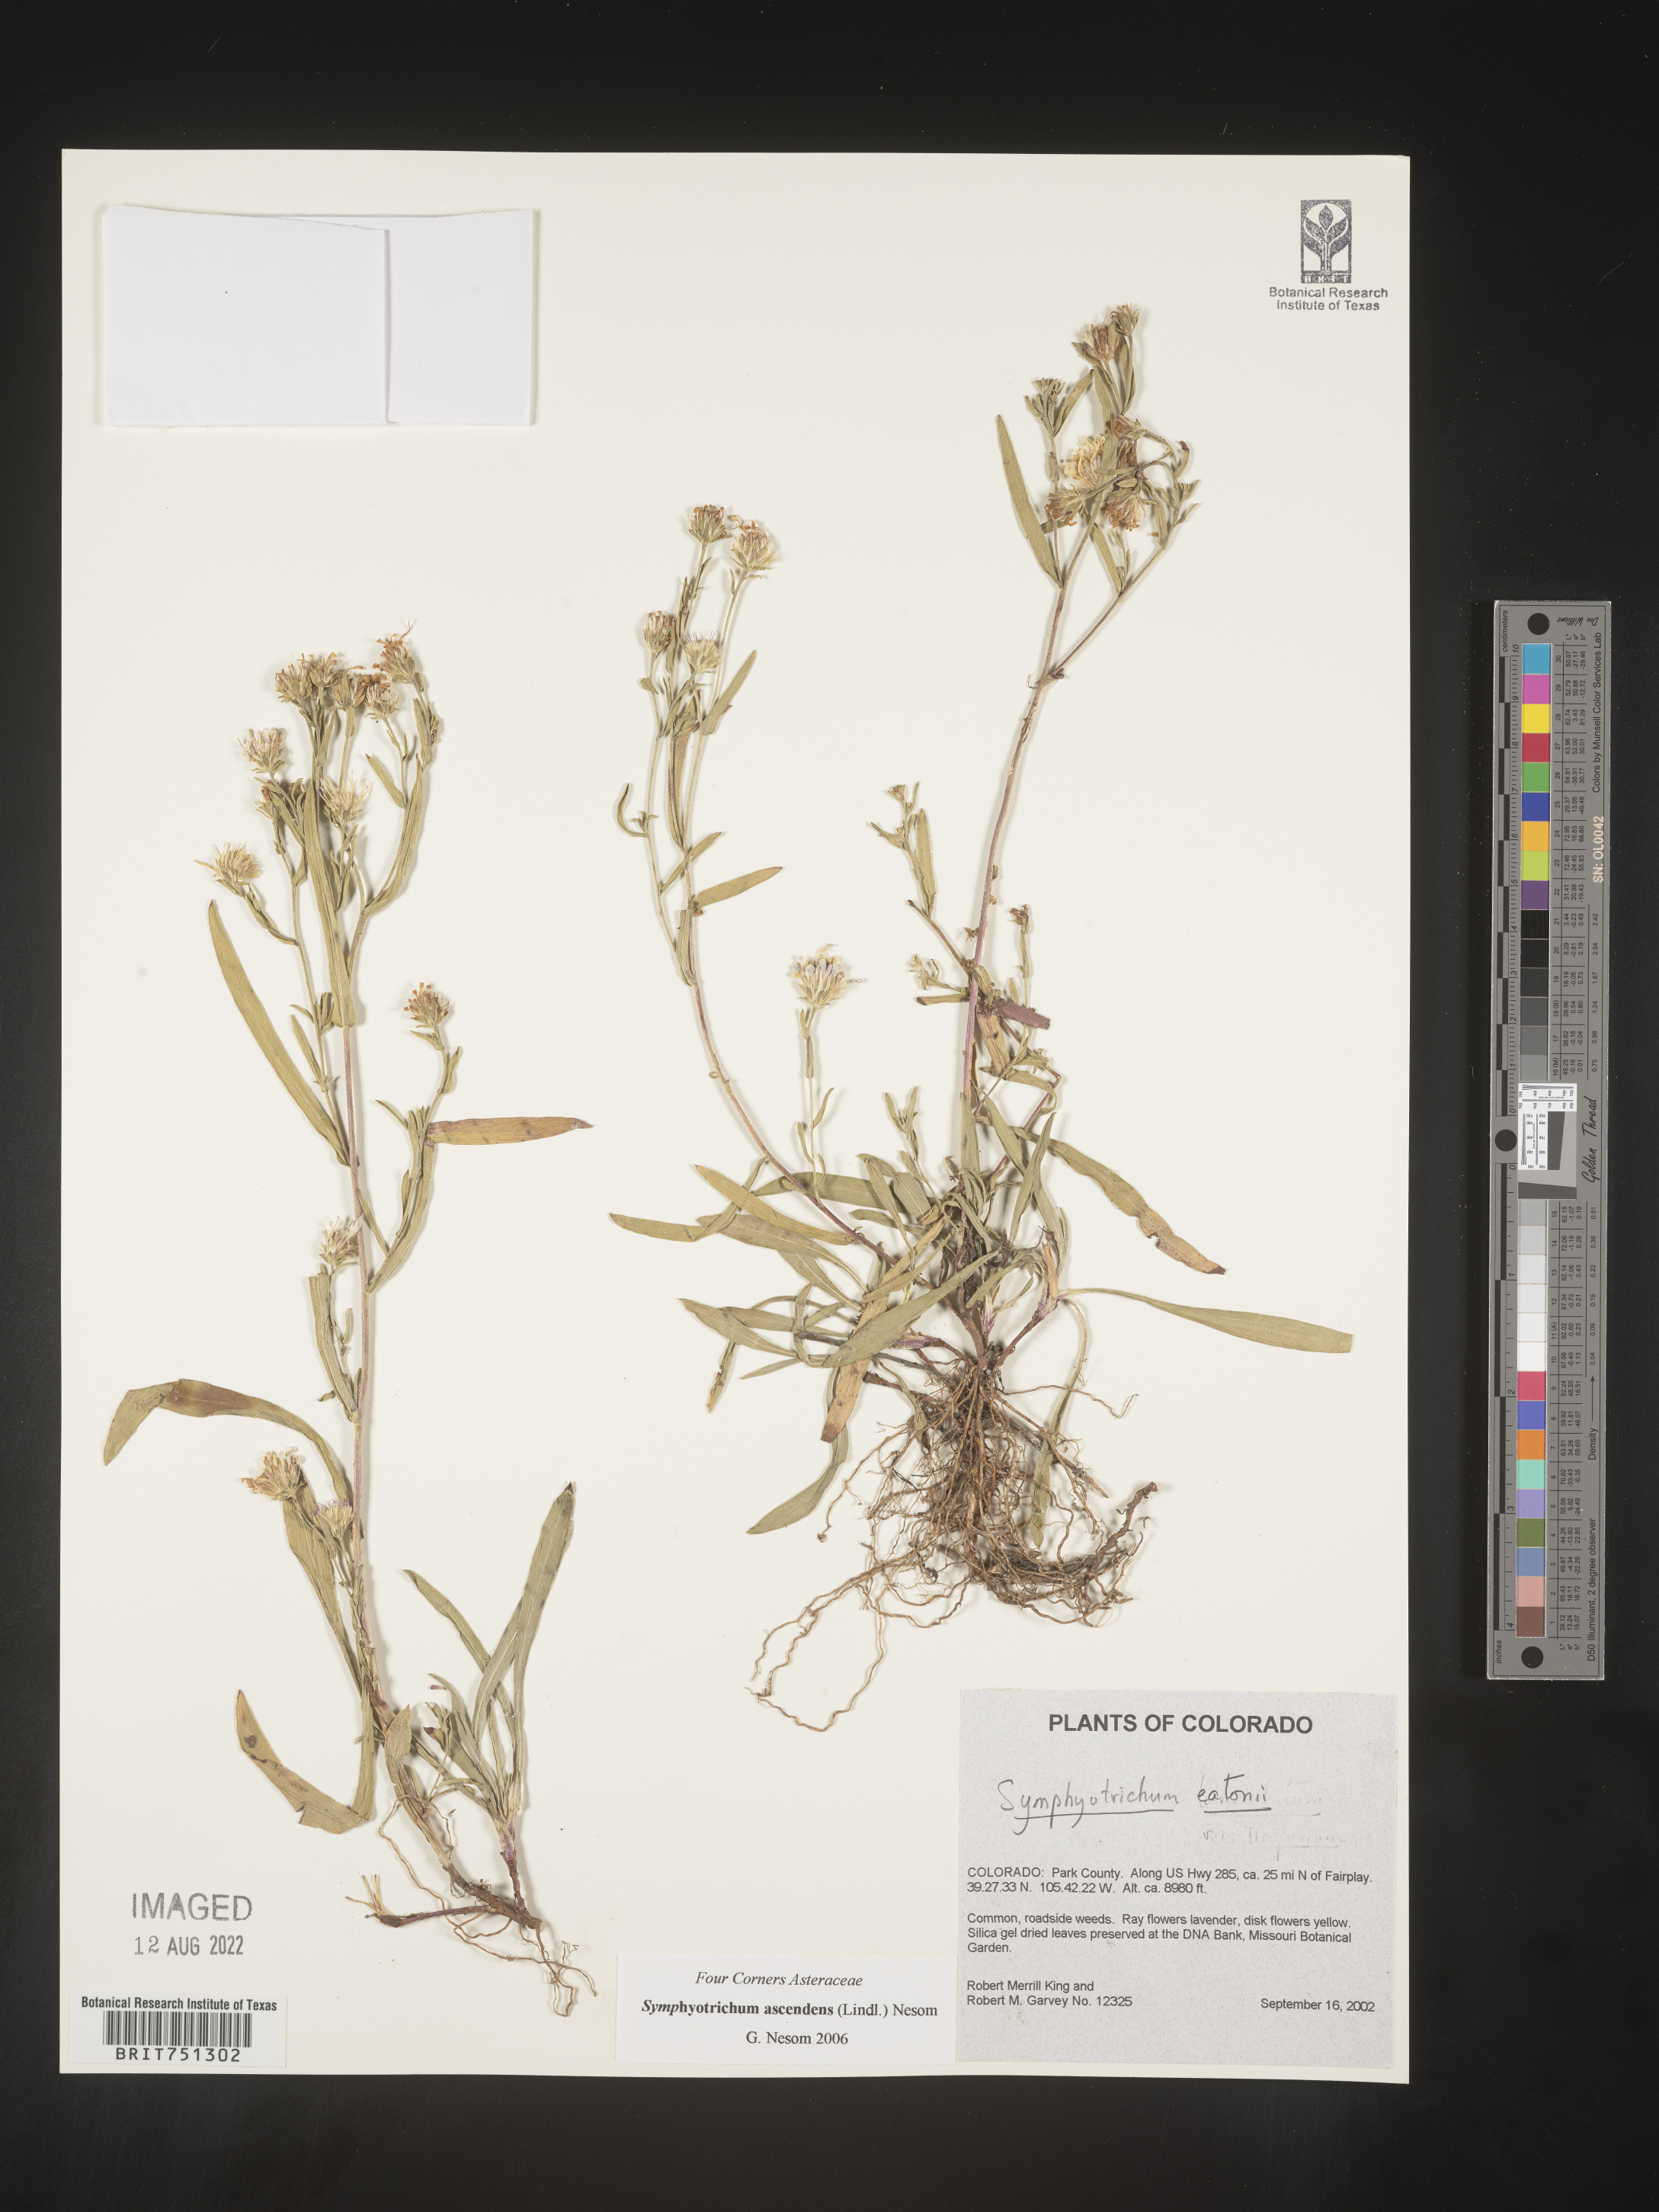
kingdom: Plantae
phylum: Tracheophyta
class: Magnoliopsida
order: Asterales
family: Asteraceae
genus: Symphyotrichum
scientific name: Symphyotrichum ascendens
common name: Intermountain aster
